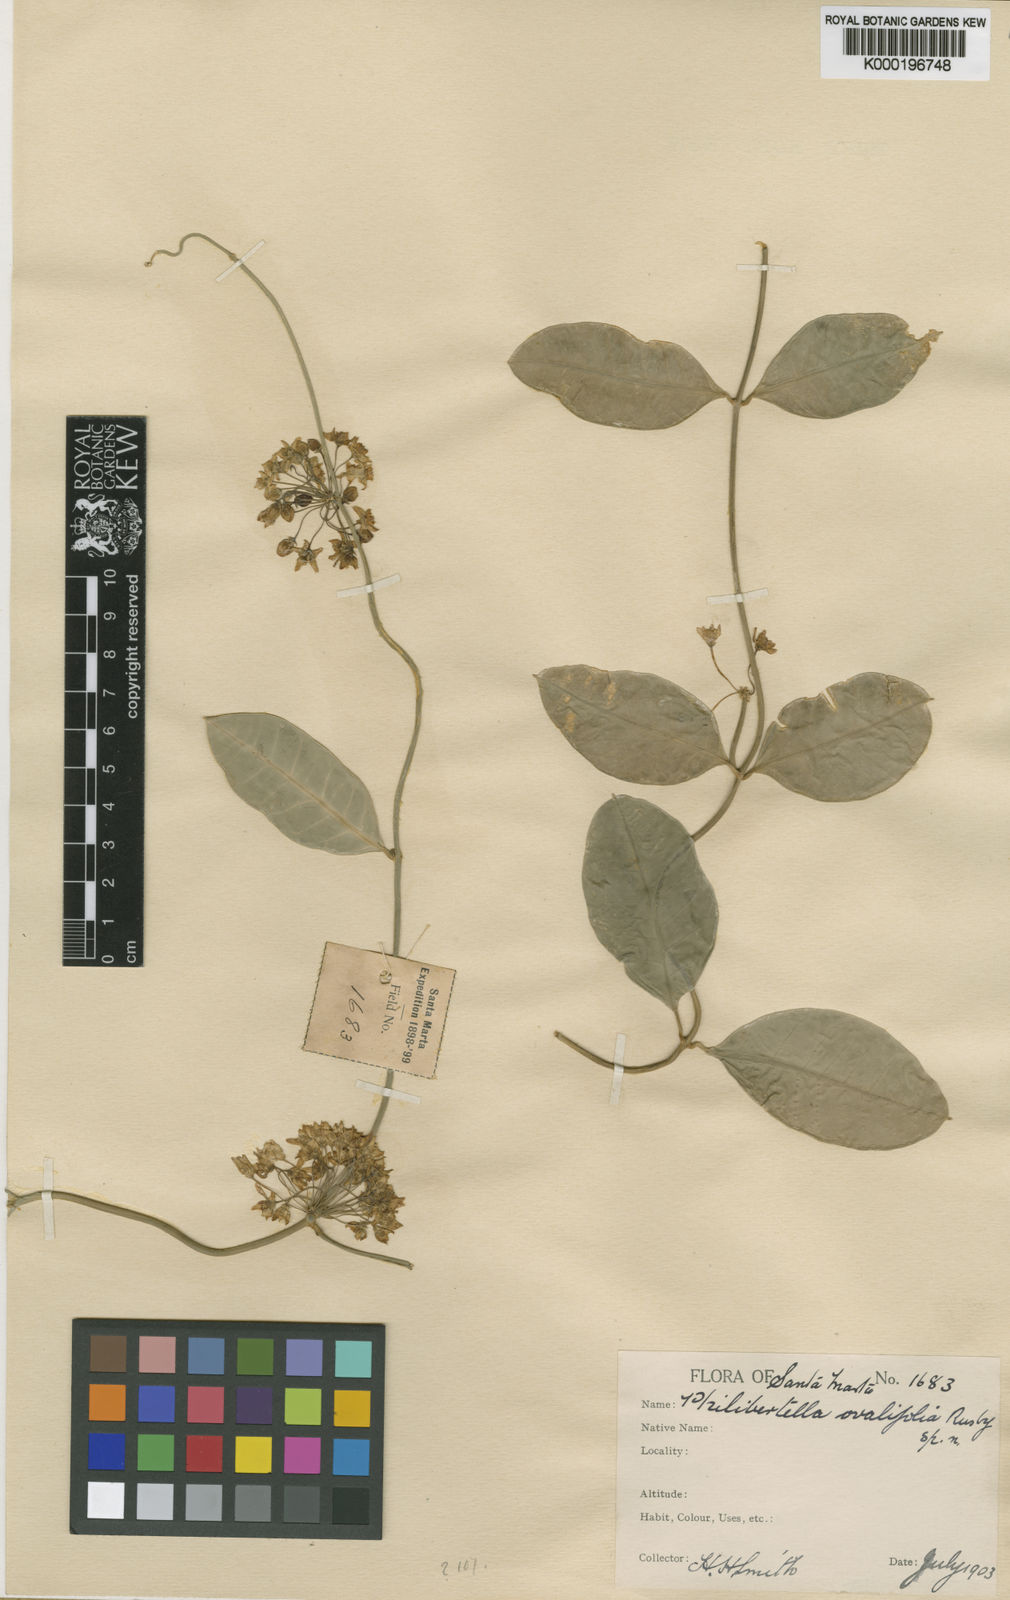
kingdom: Plantae
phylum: Tracheophyta
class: Magnoliopsida
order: Gentianales
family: Apocynaceae
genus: Funastrum
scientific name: Funastrum glaucum
